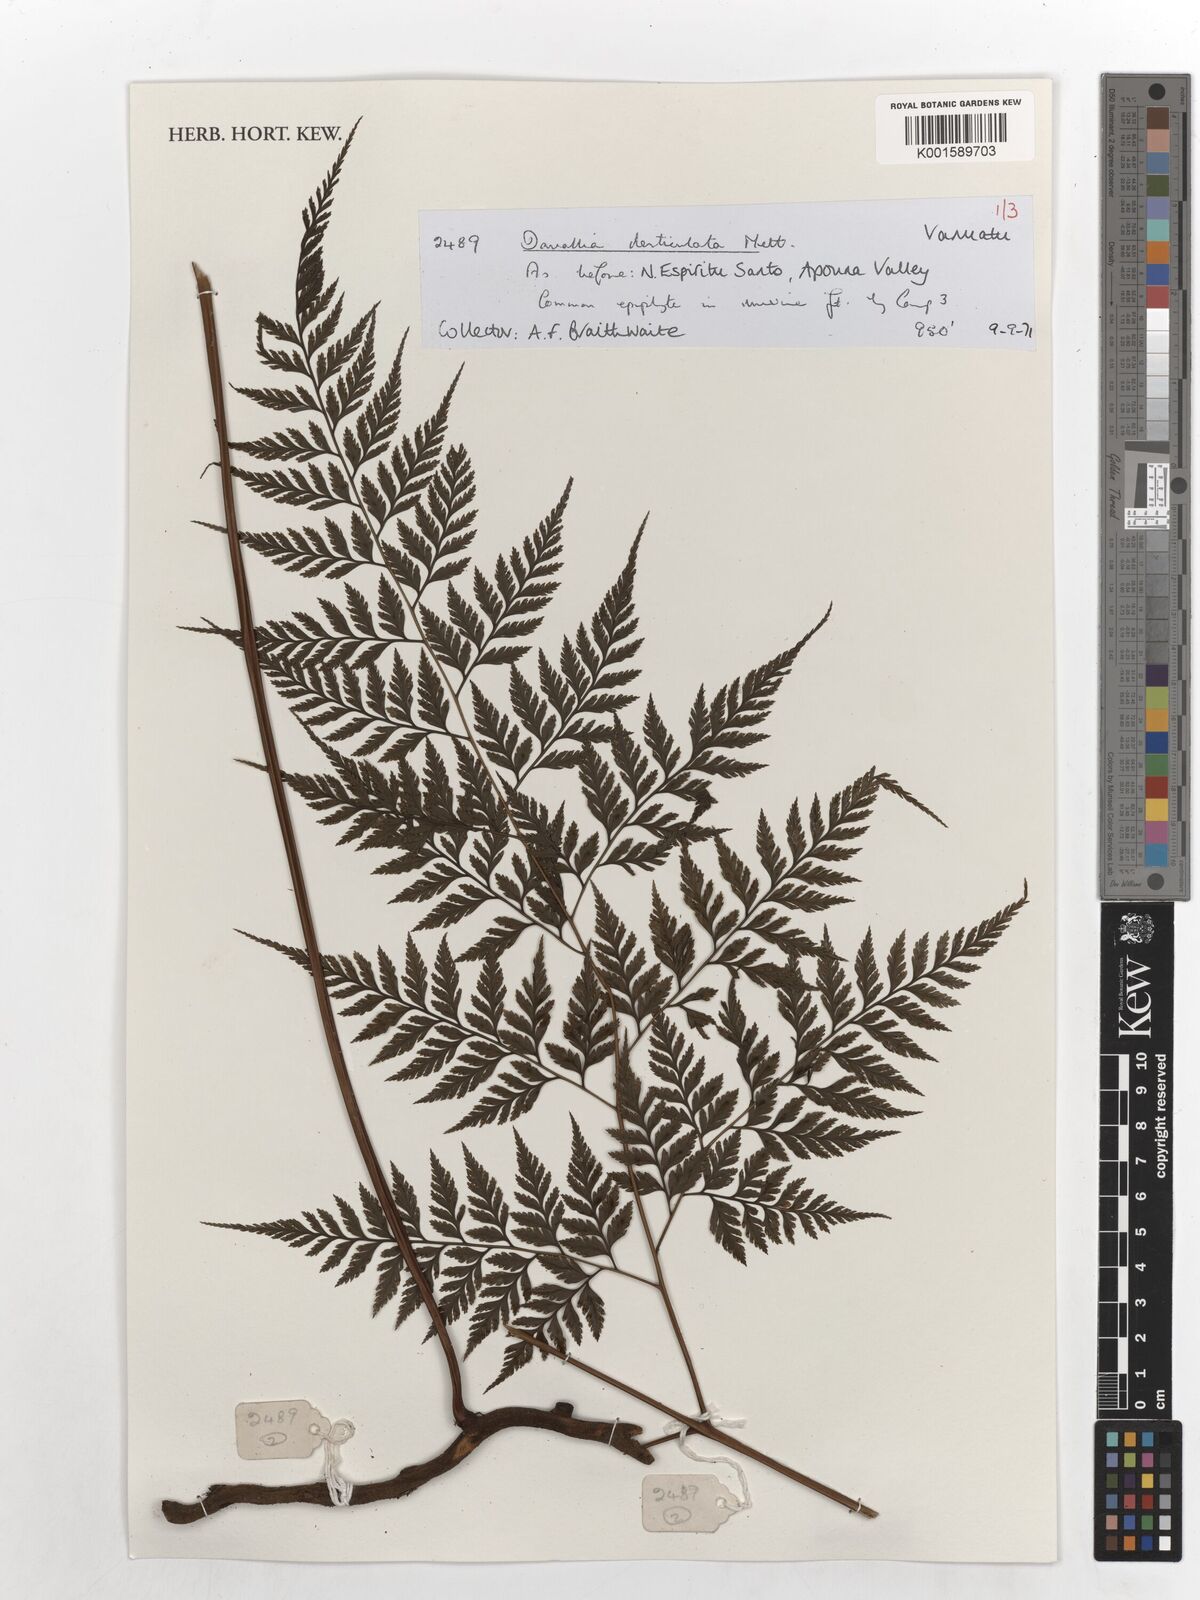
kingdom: Plantae
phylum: Tracheophyta
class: Polypodiopsida
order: Polypodiales
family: Davalliaceae
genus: Davallia
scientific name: Davallia denticulata
